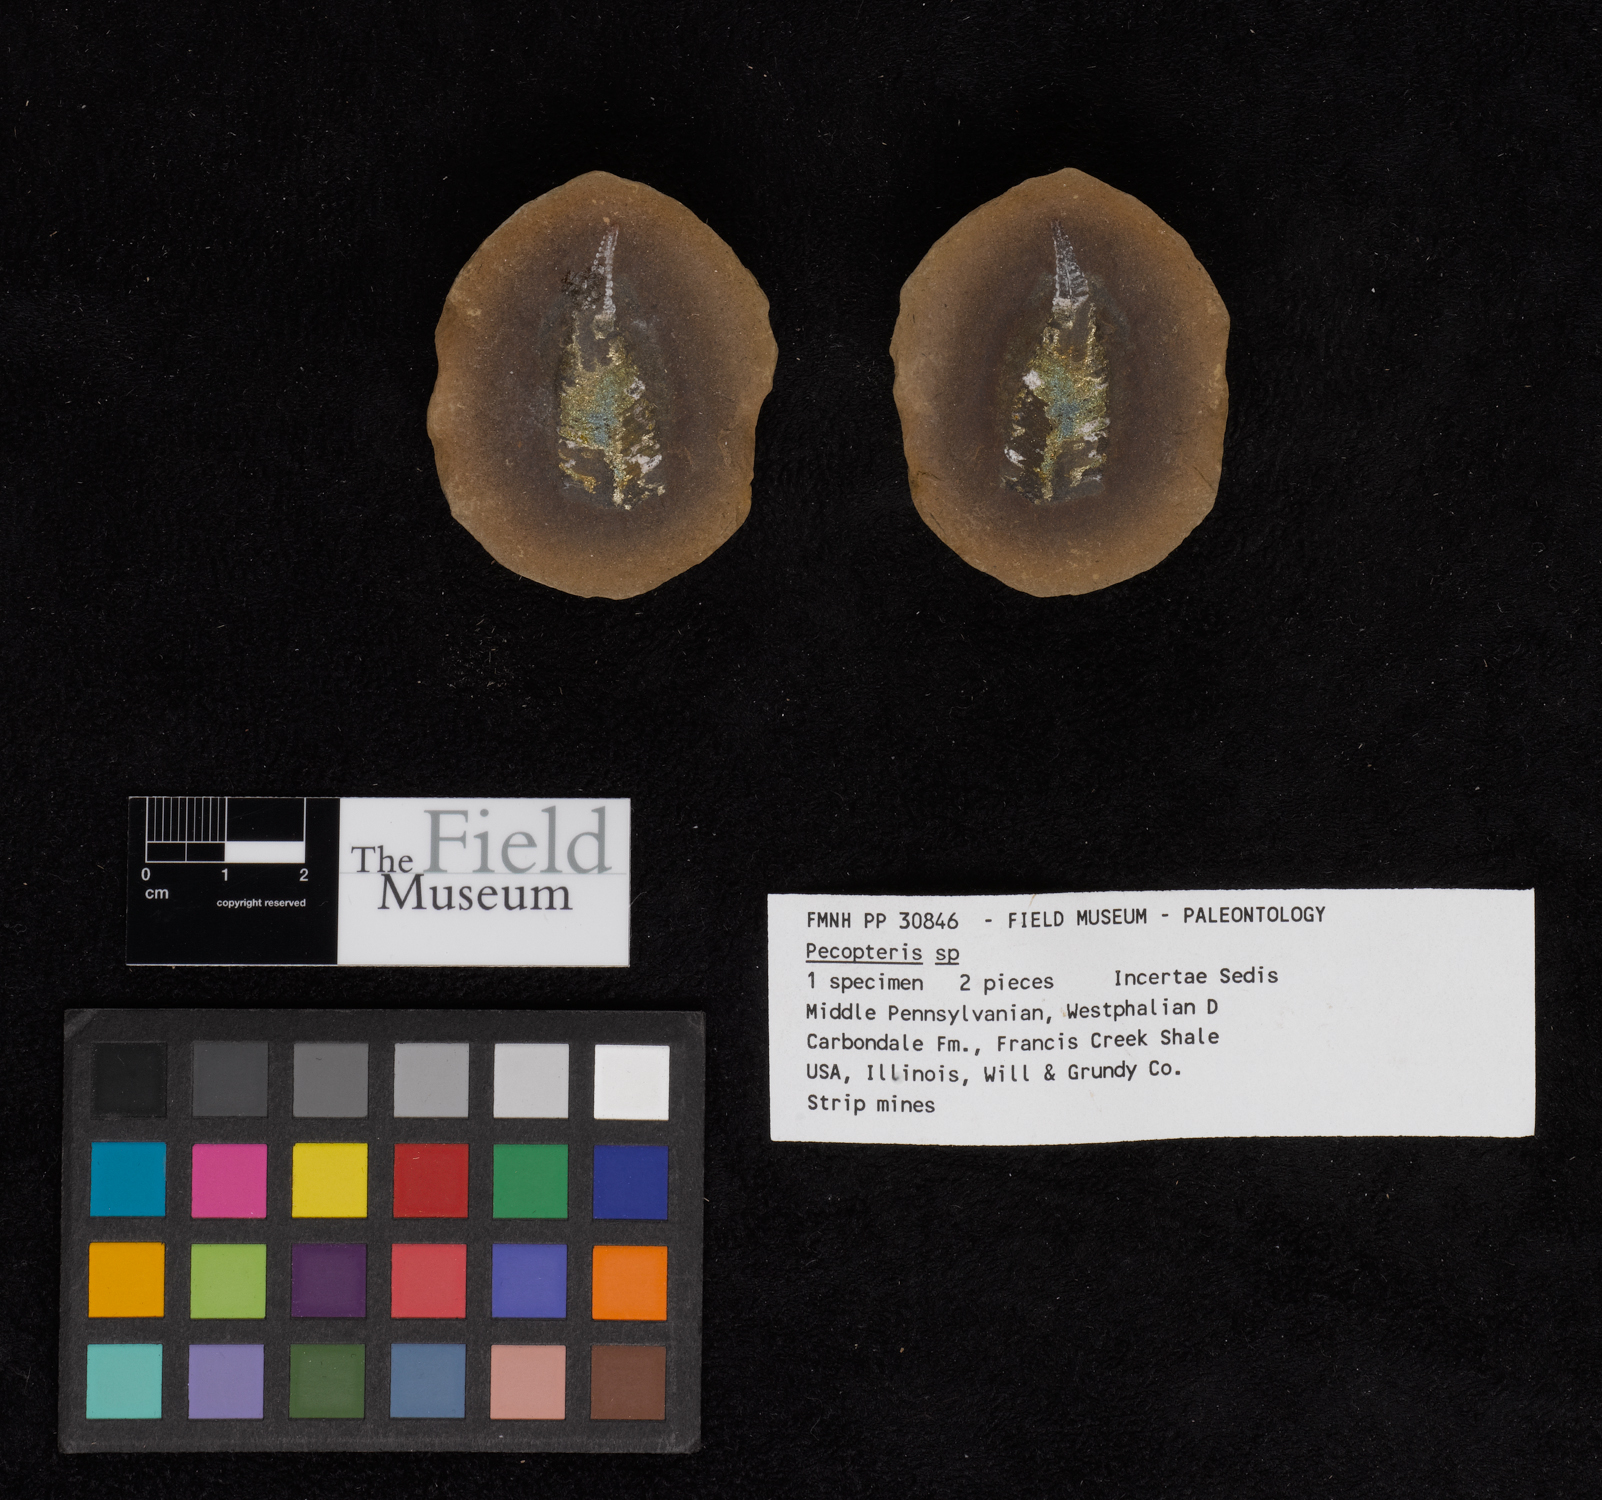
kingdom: Plantae
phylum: Tracheophyta
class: Polypodiopsida
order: Marattiales
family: Asterothecaceae
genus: Pecopteris
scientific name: Pecopteris
